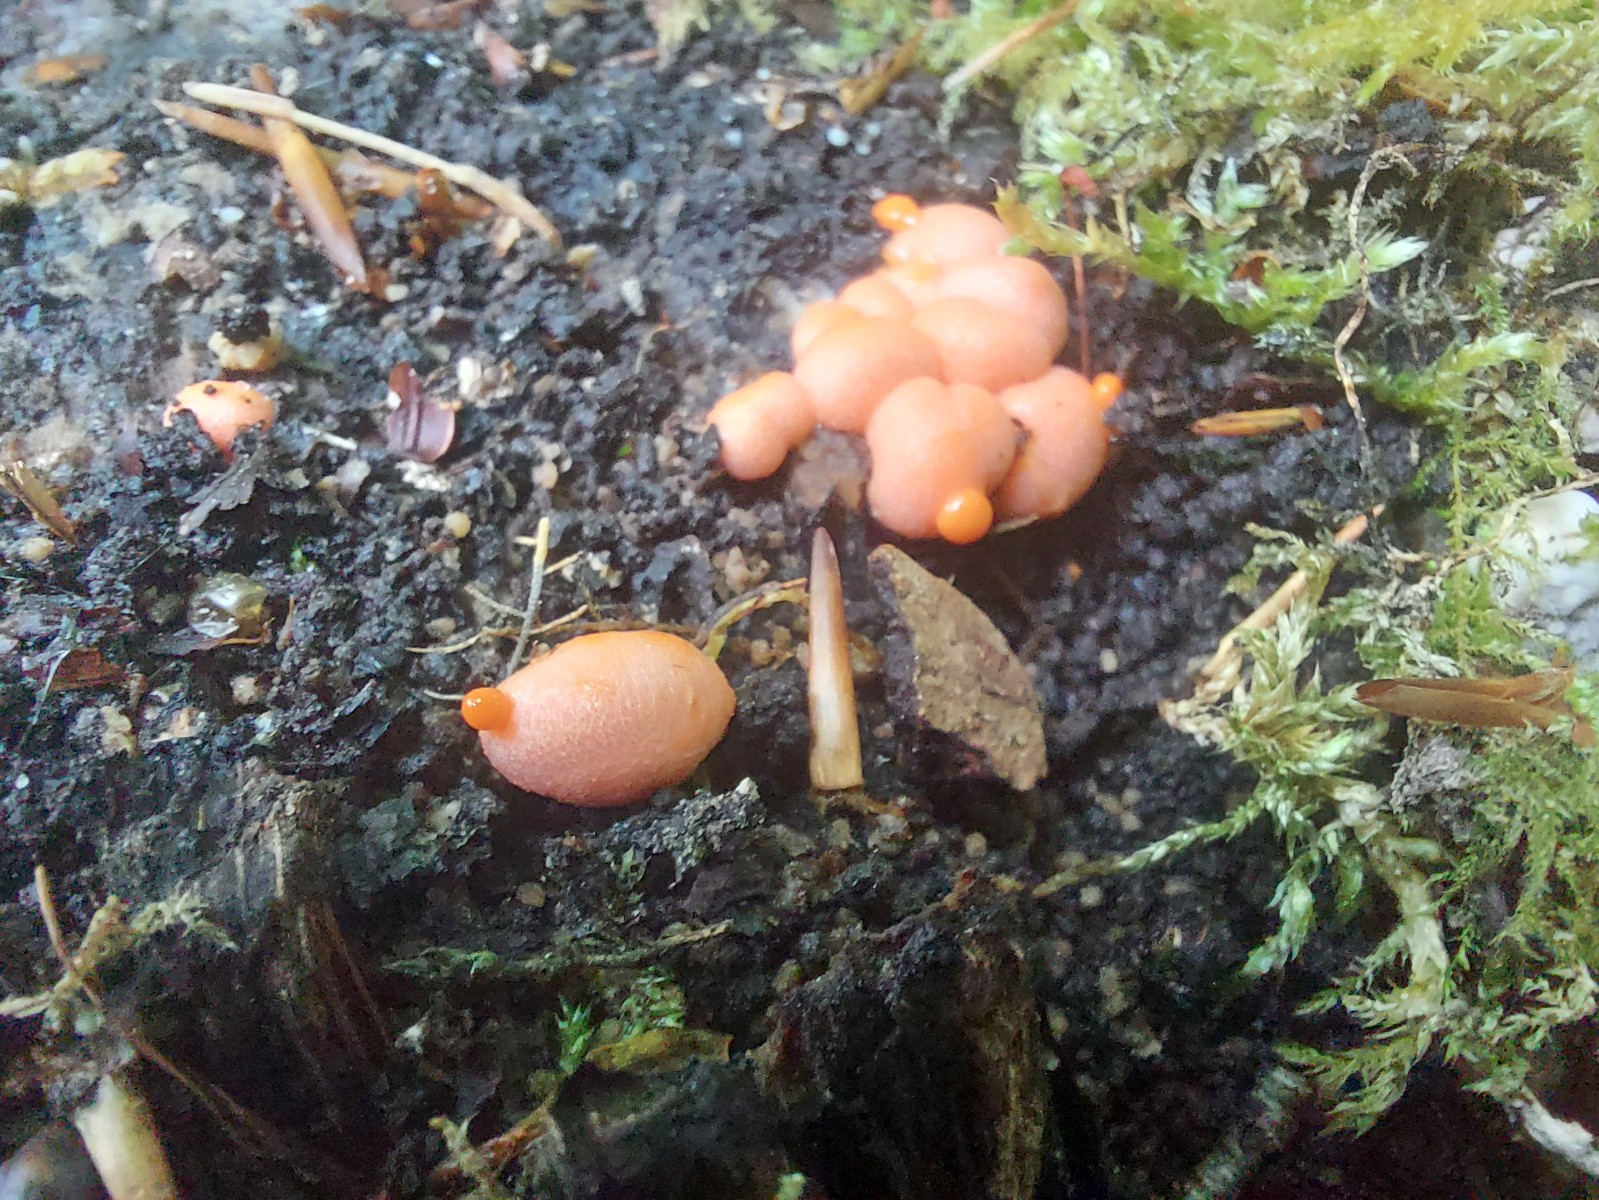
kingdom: Protozoa
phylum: Mycetozoa
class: Myxomycetes
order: Cribrariales
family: Tubiferaceae
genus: Lycogala
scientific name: Lycogala epidendrum
